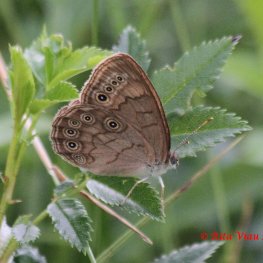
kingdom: Animalia
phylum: Arthropoda
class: Insecta
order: Lepidoptera
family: Nymphalidae
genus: Lethe
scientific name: Lethe eurydice
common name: Eyed Brown
